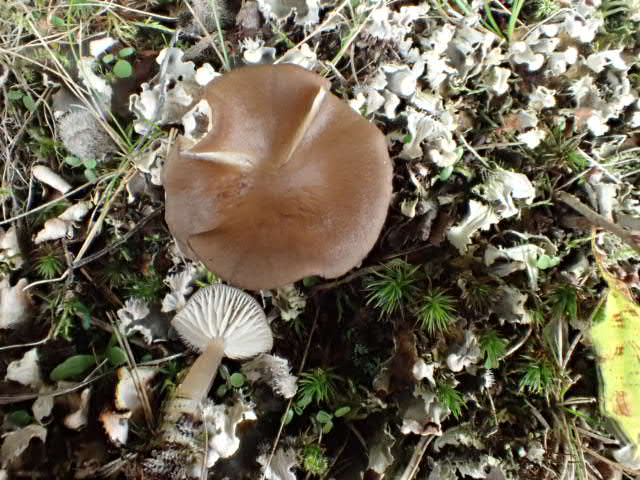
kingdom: Fungi
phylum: Basidiomycota
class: Agaricomycetes
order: Agaricales
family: Tricholomataceae
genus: Gamundia
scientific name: Gamundia xerophila
